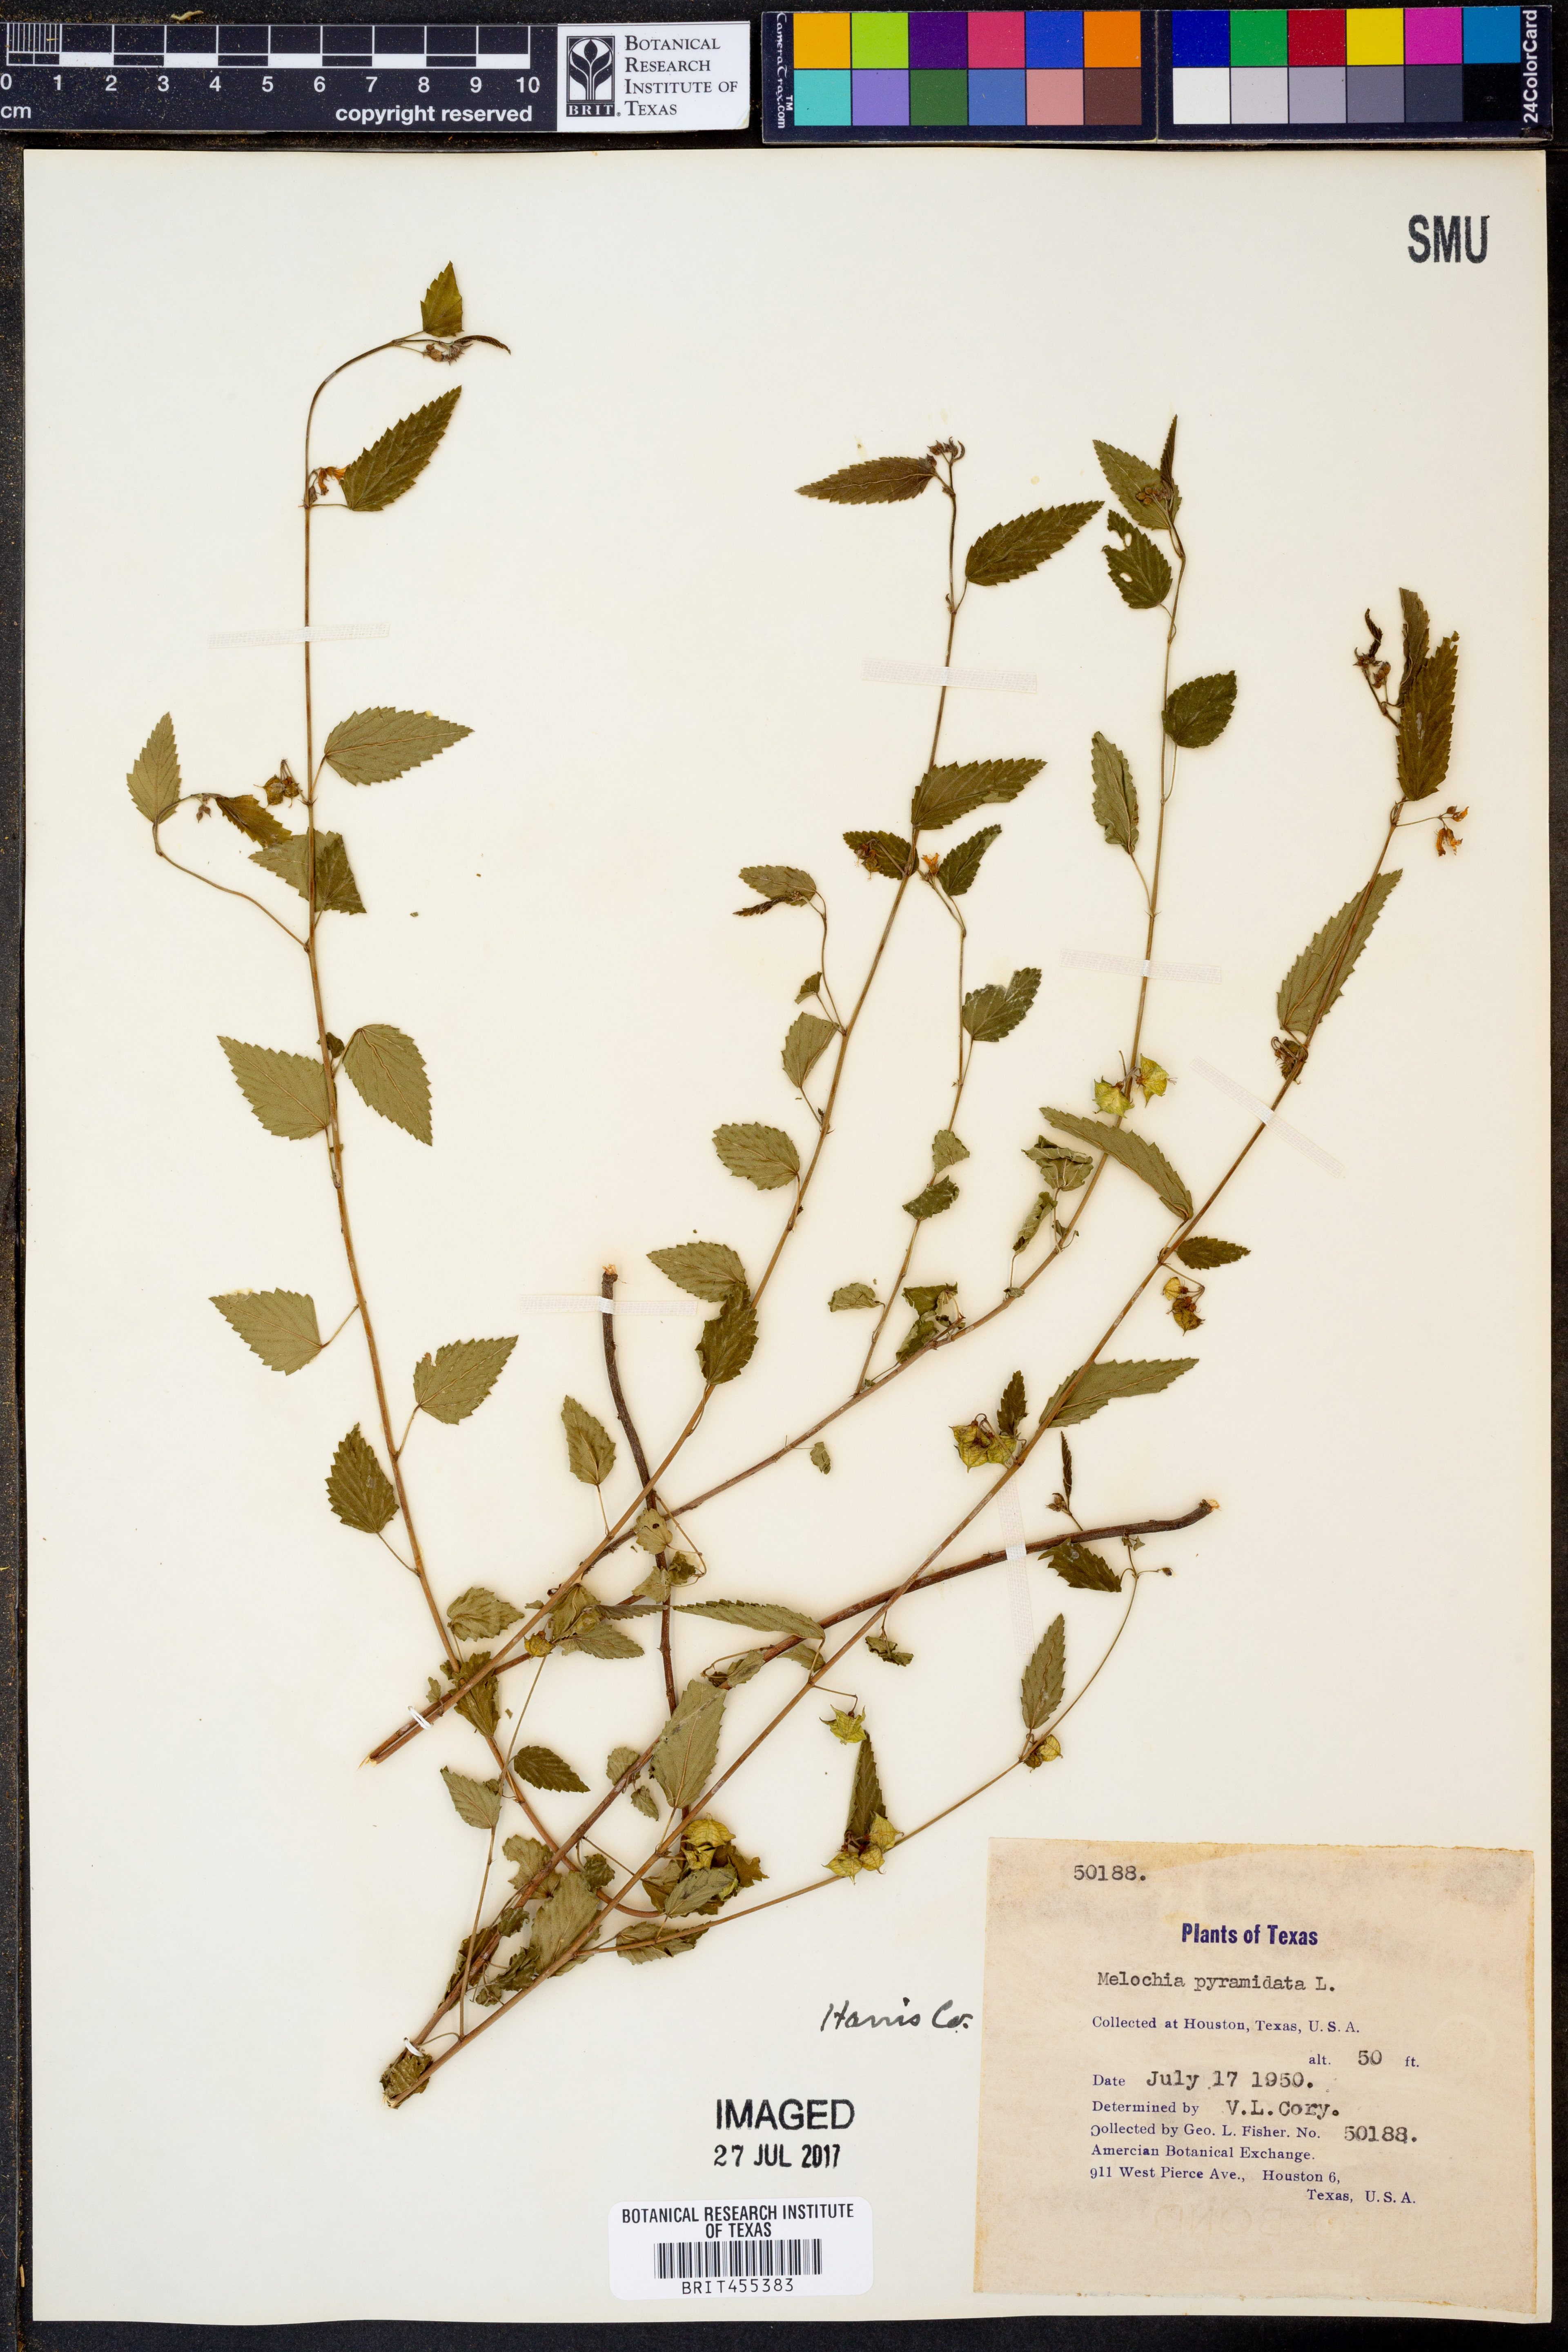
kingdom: Plantae
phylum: Tracheophyta
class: Magnoliopsida
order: Malvales
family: Malvaceae
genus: Melochia
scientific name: Melochia pyramidata
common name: Pyramidflower
